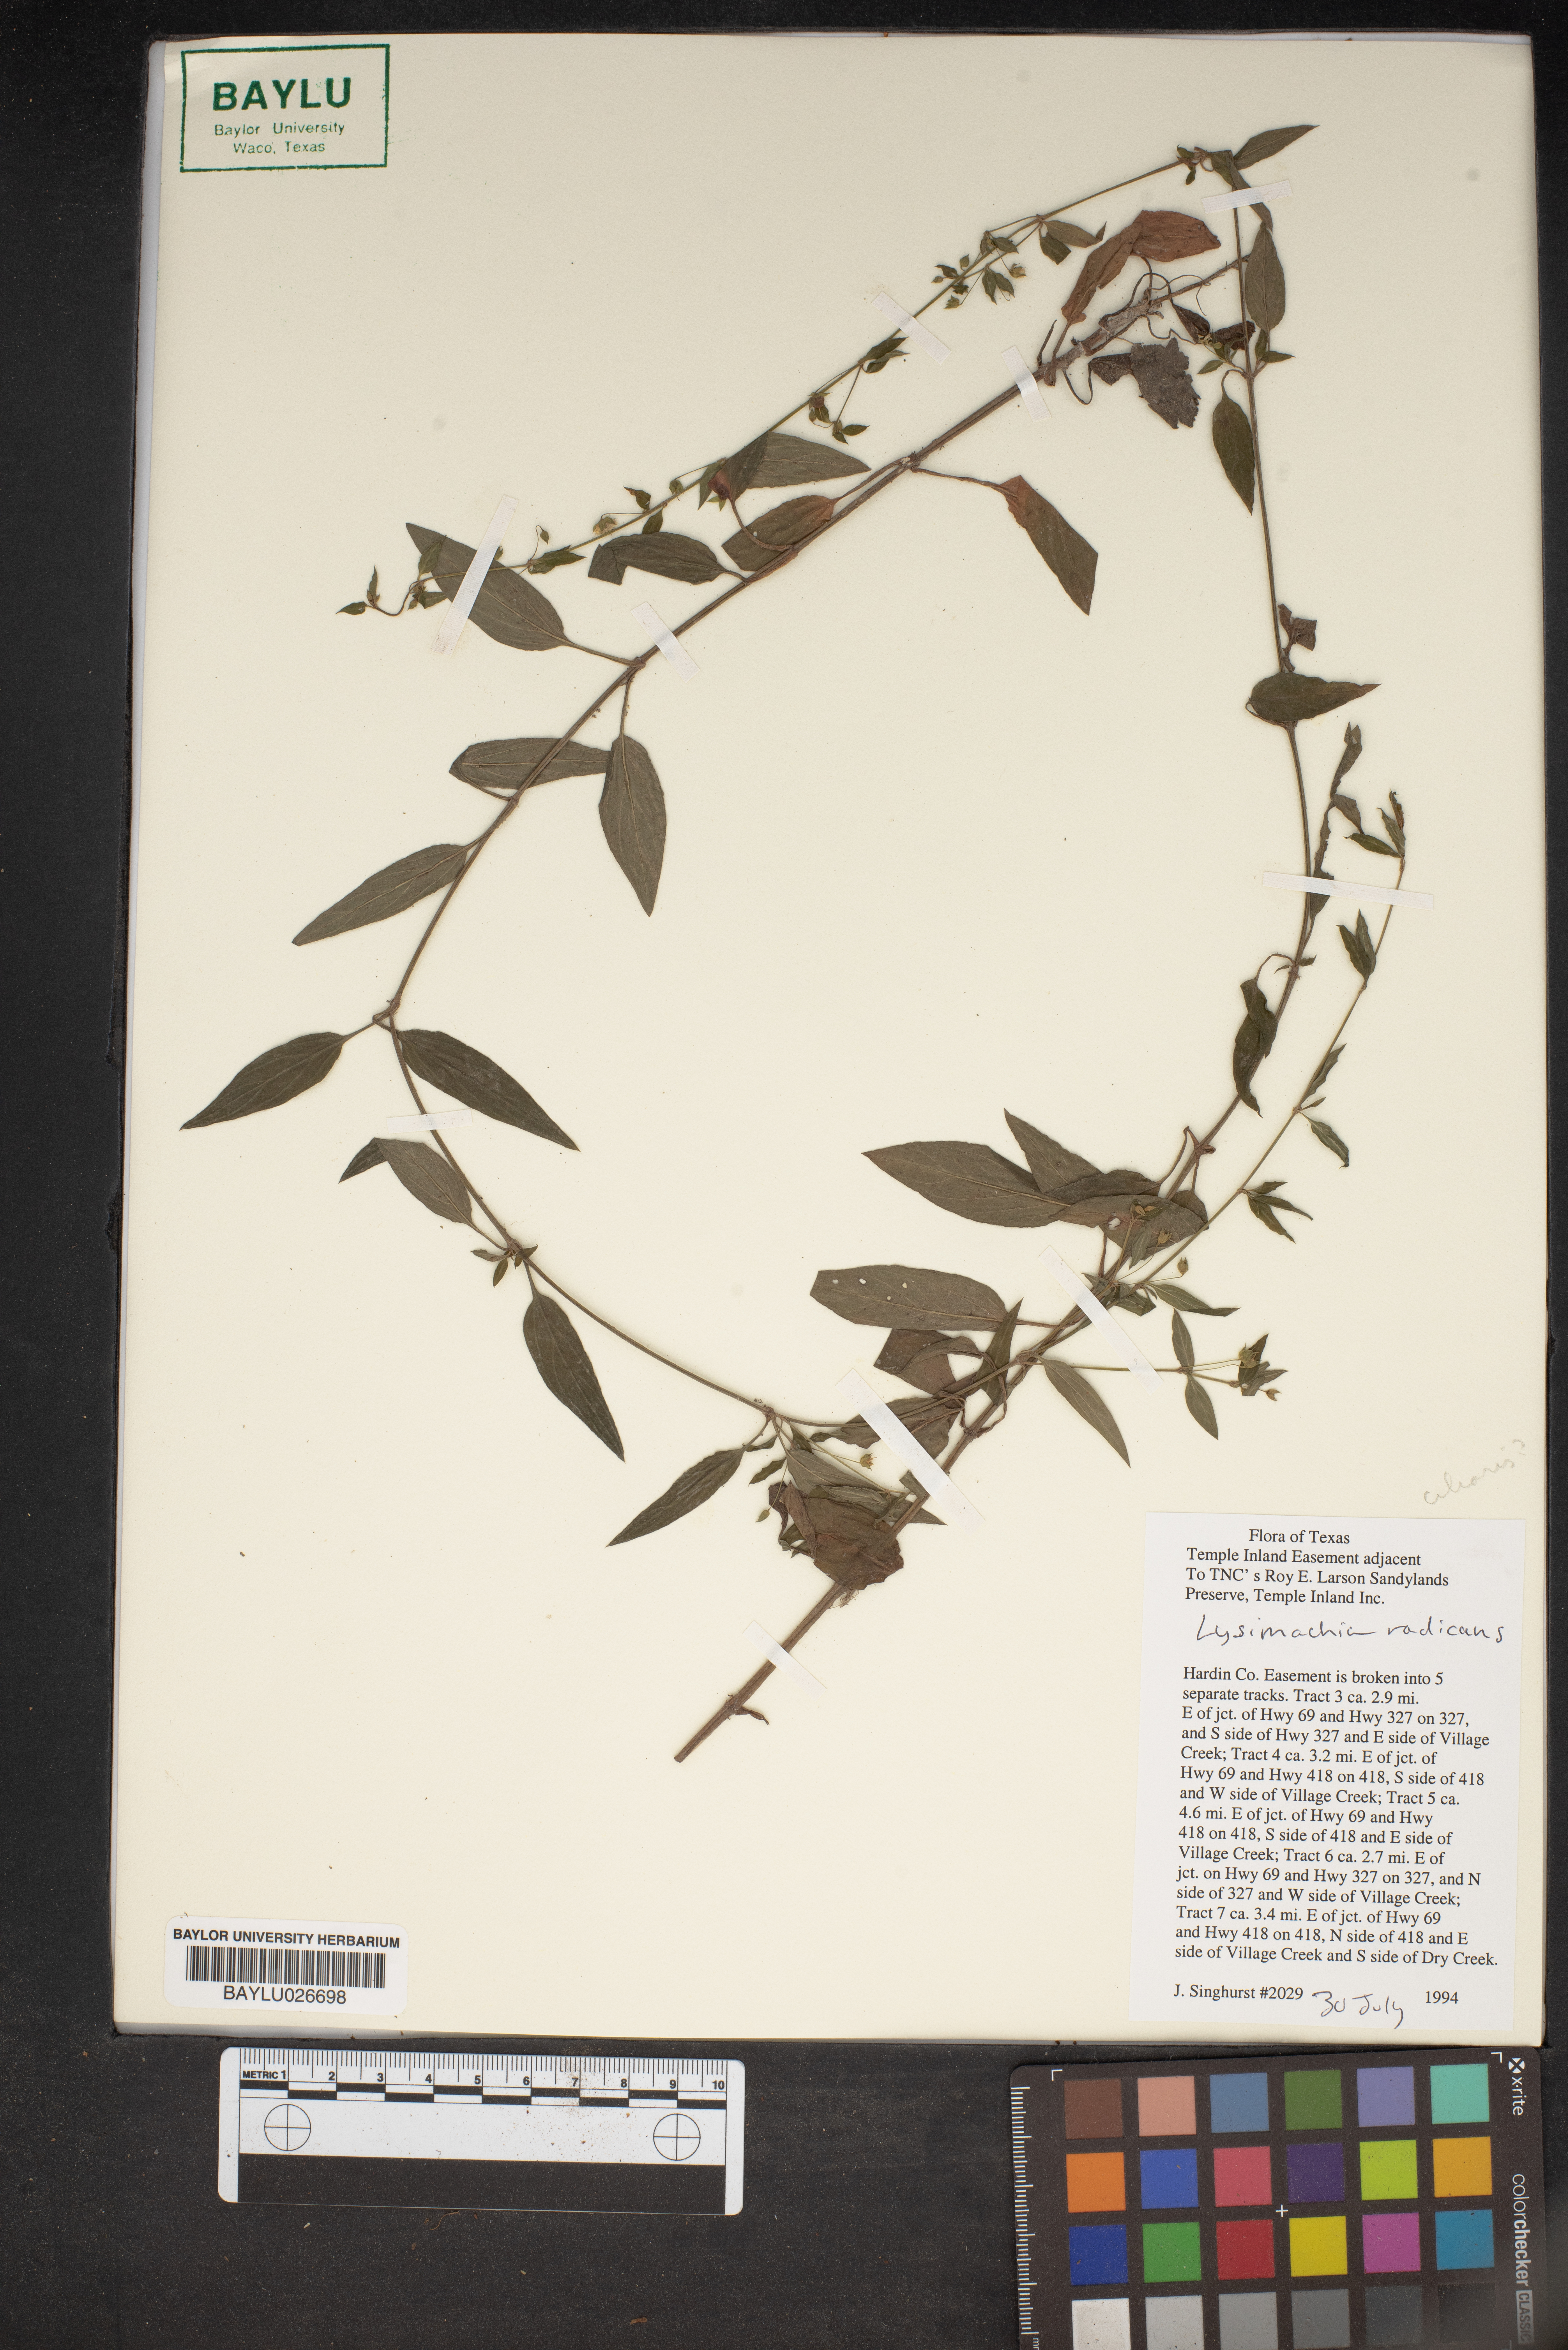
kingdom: Plantae
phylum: Tracheophyta
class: Magnoliopsida
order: Ericales
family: Primulaceae
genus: Lysimachia
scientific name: Lysimachia radicans
